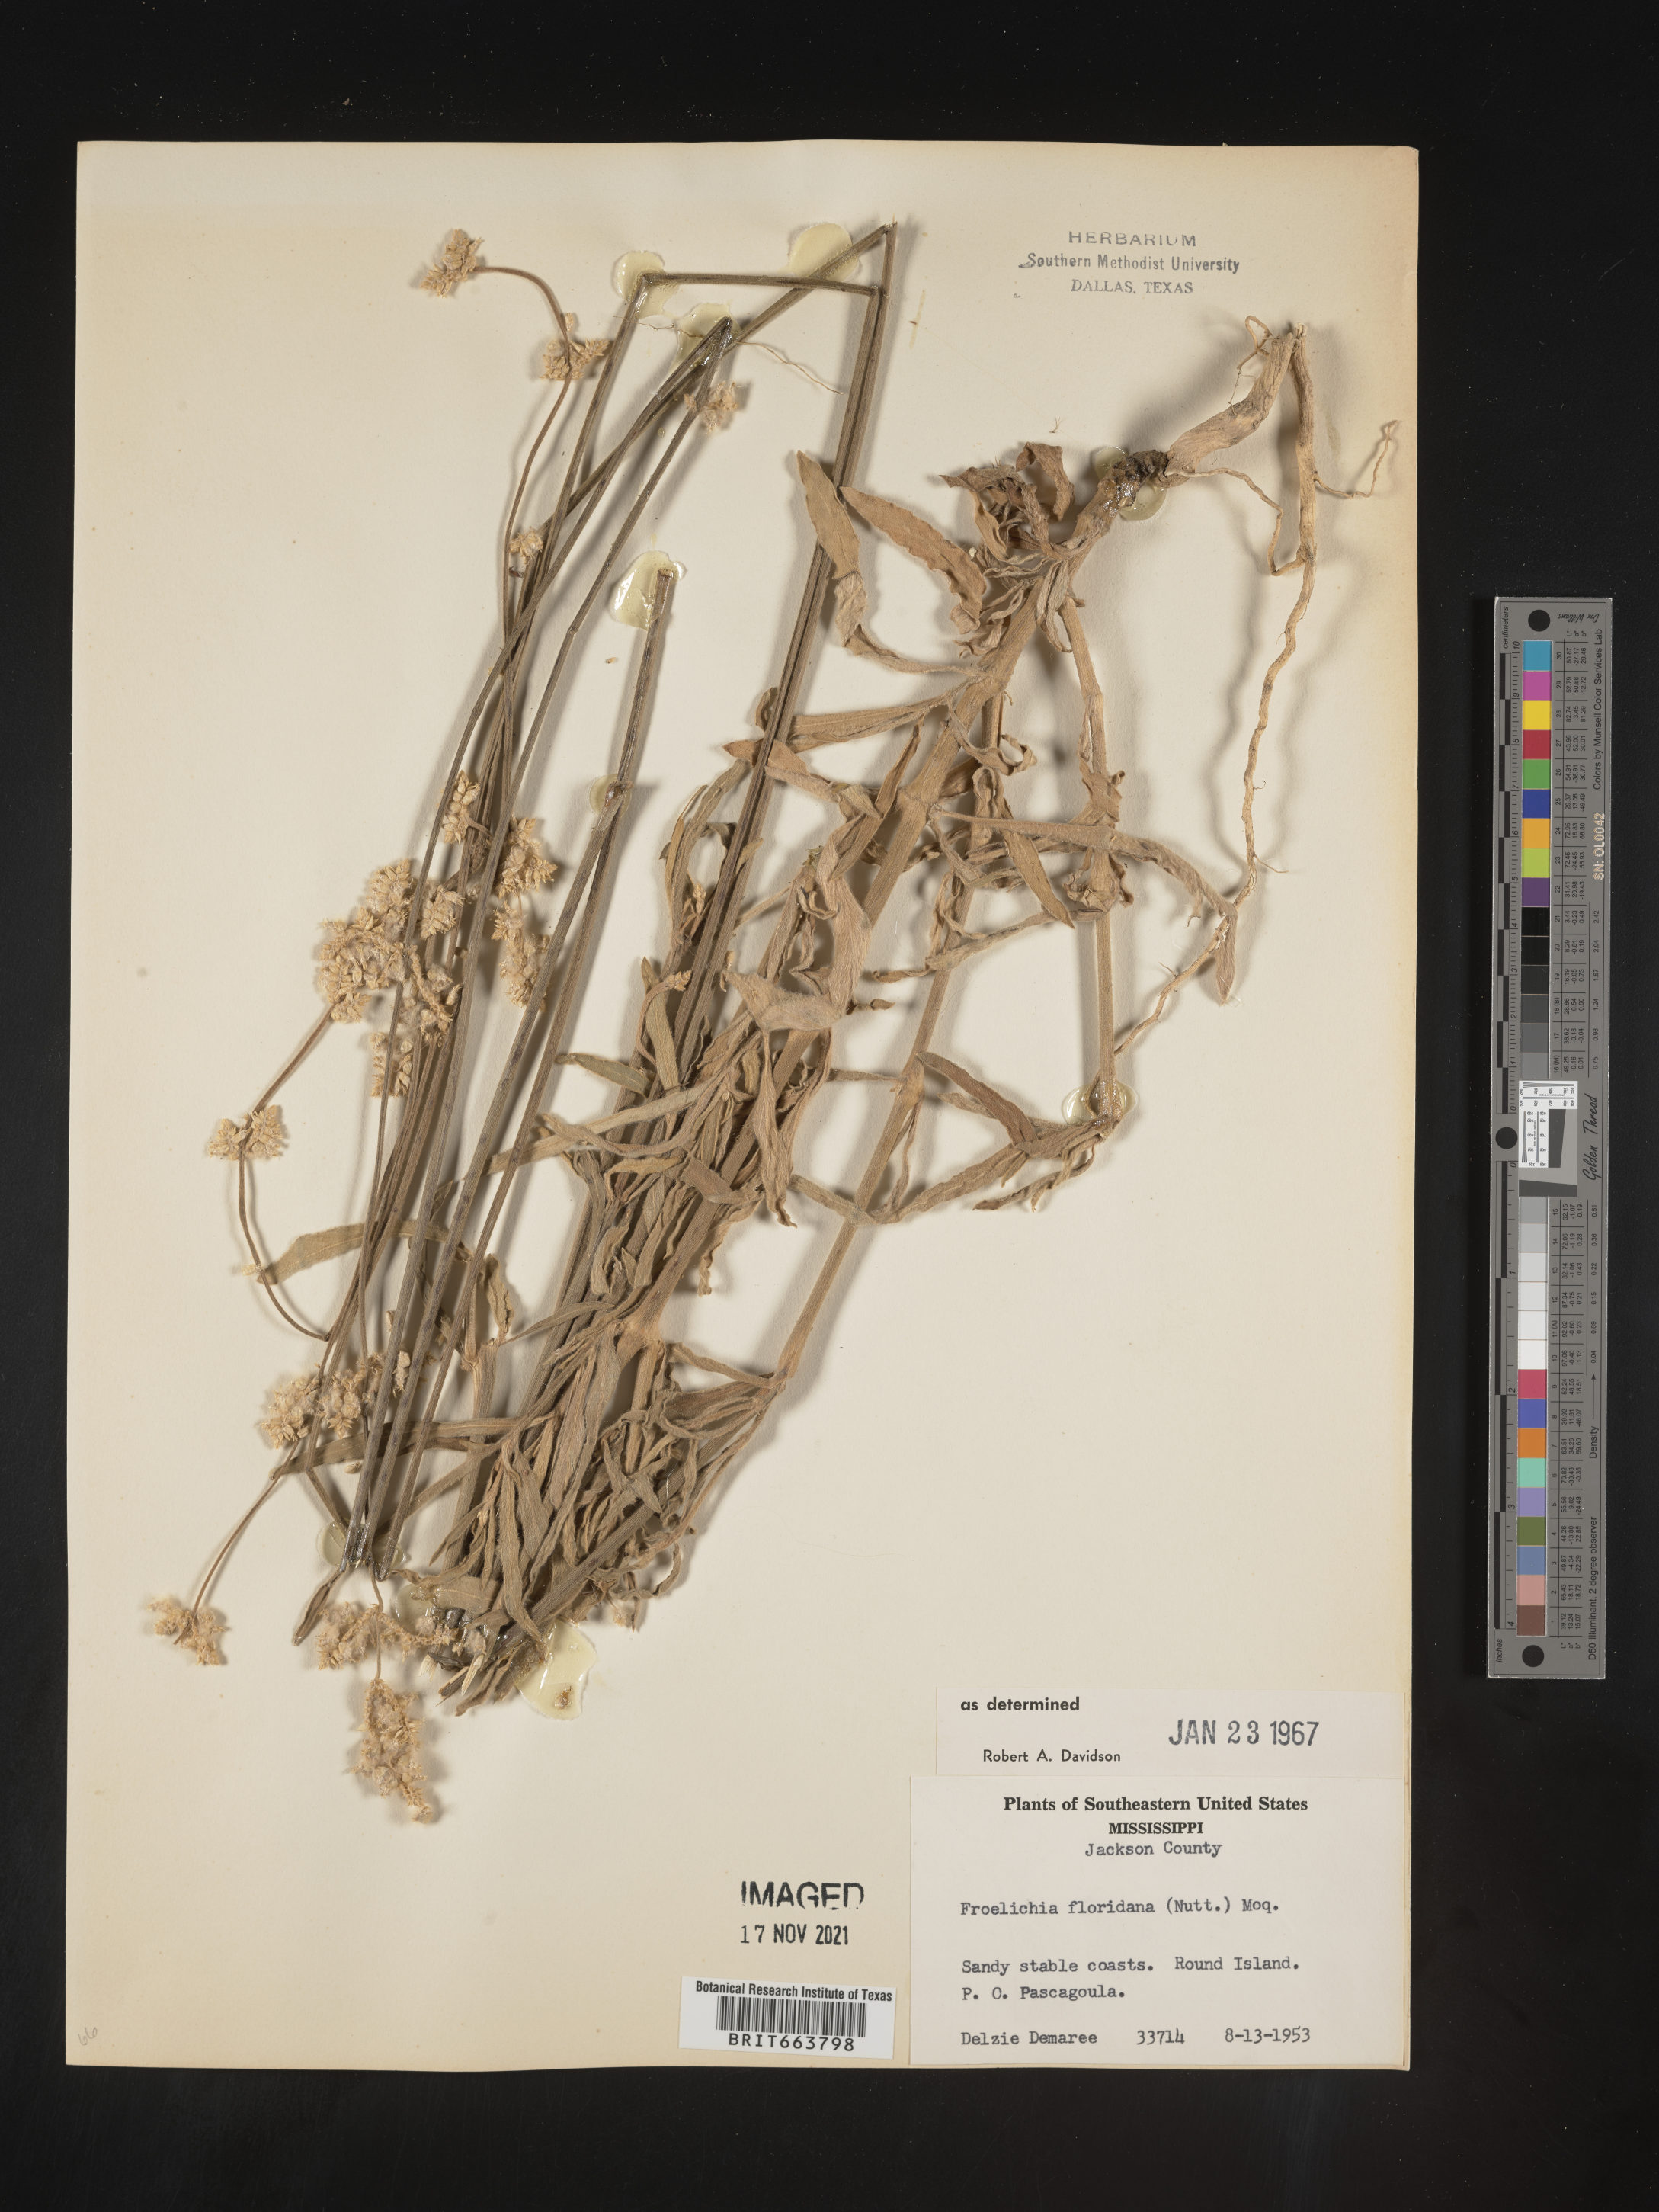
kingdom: Plantae
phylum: Tracheophyta
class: Magnoliopsida
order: Caryophyllales
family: Amaranthaceae
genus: Froelichia
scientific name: Froelichia floridana
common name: Florida snake-cotton
